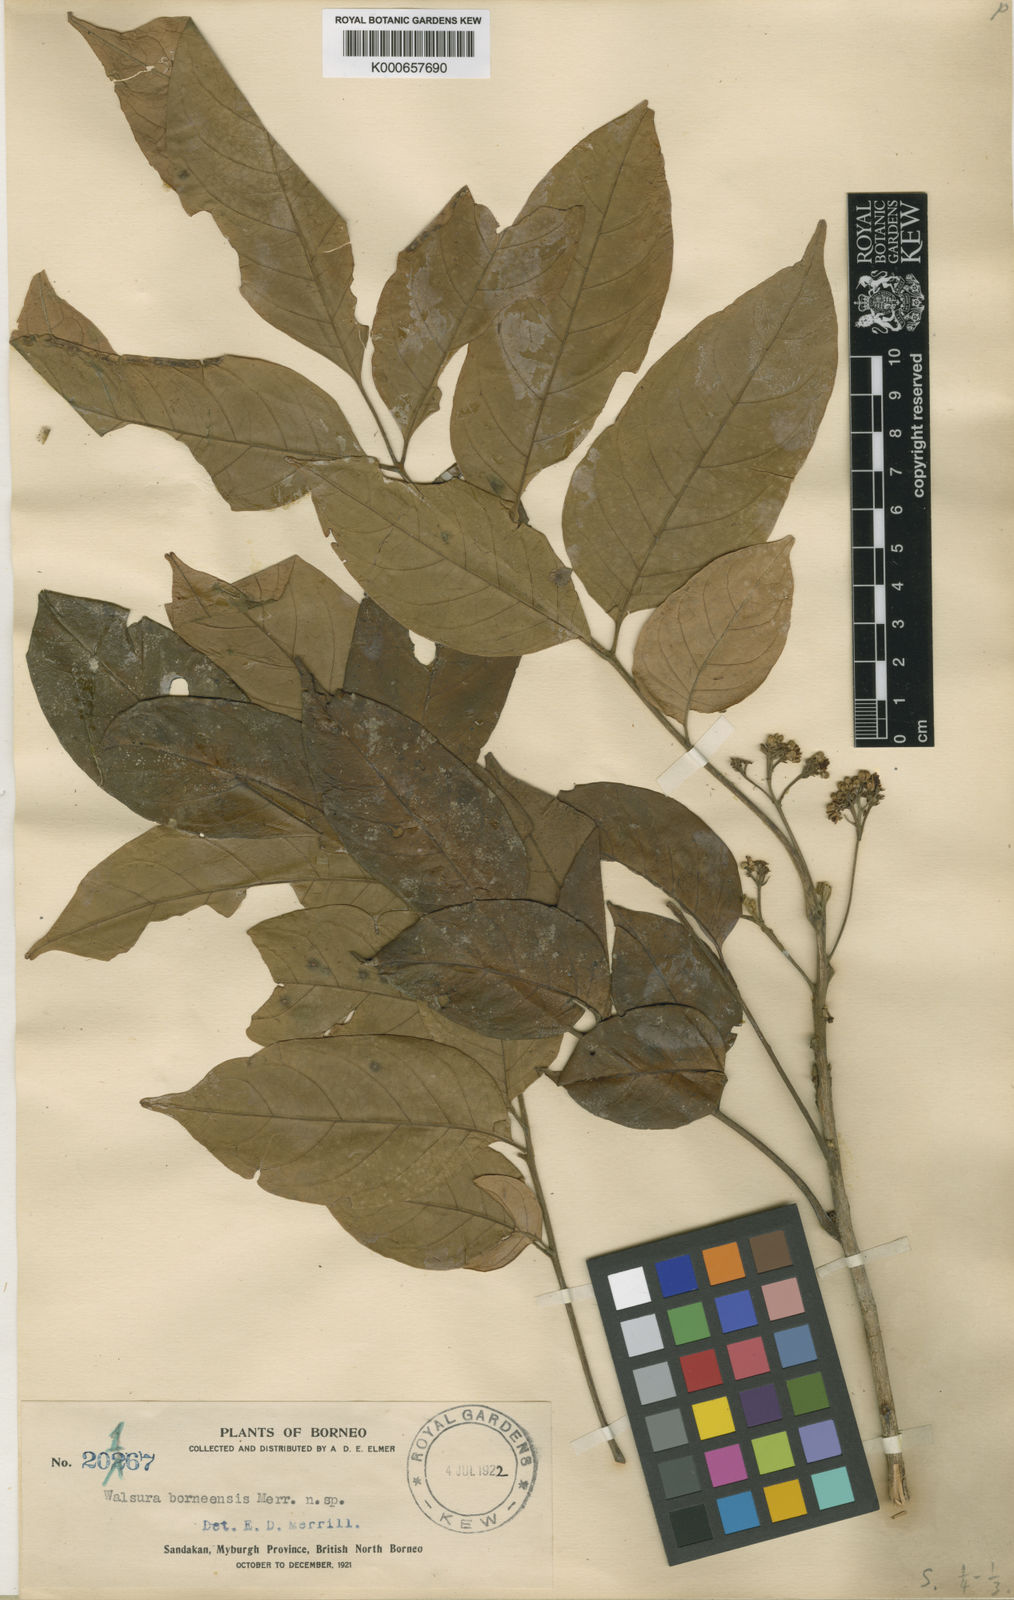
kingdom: Plantae
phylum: Tracheophyta
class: Magnoliopsida
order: Sapindales
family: Meliaceae
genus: Walsura
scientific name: Walsura
